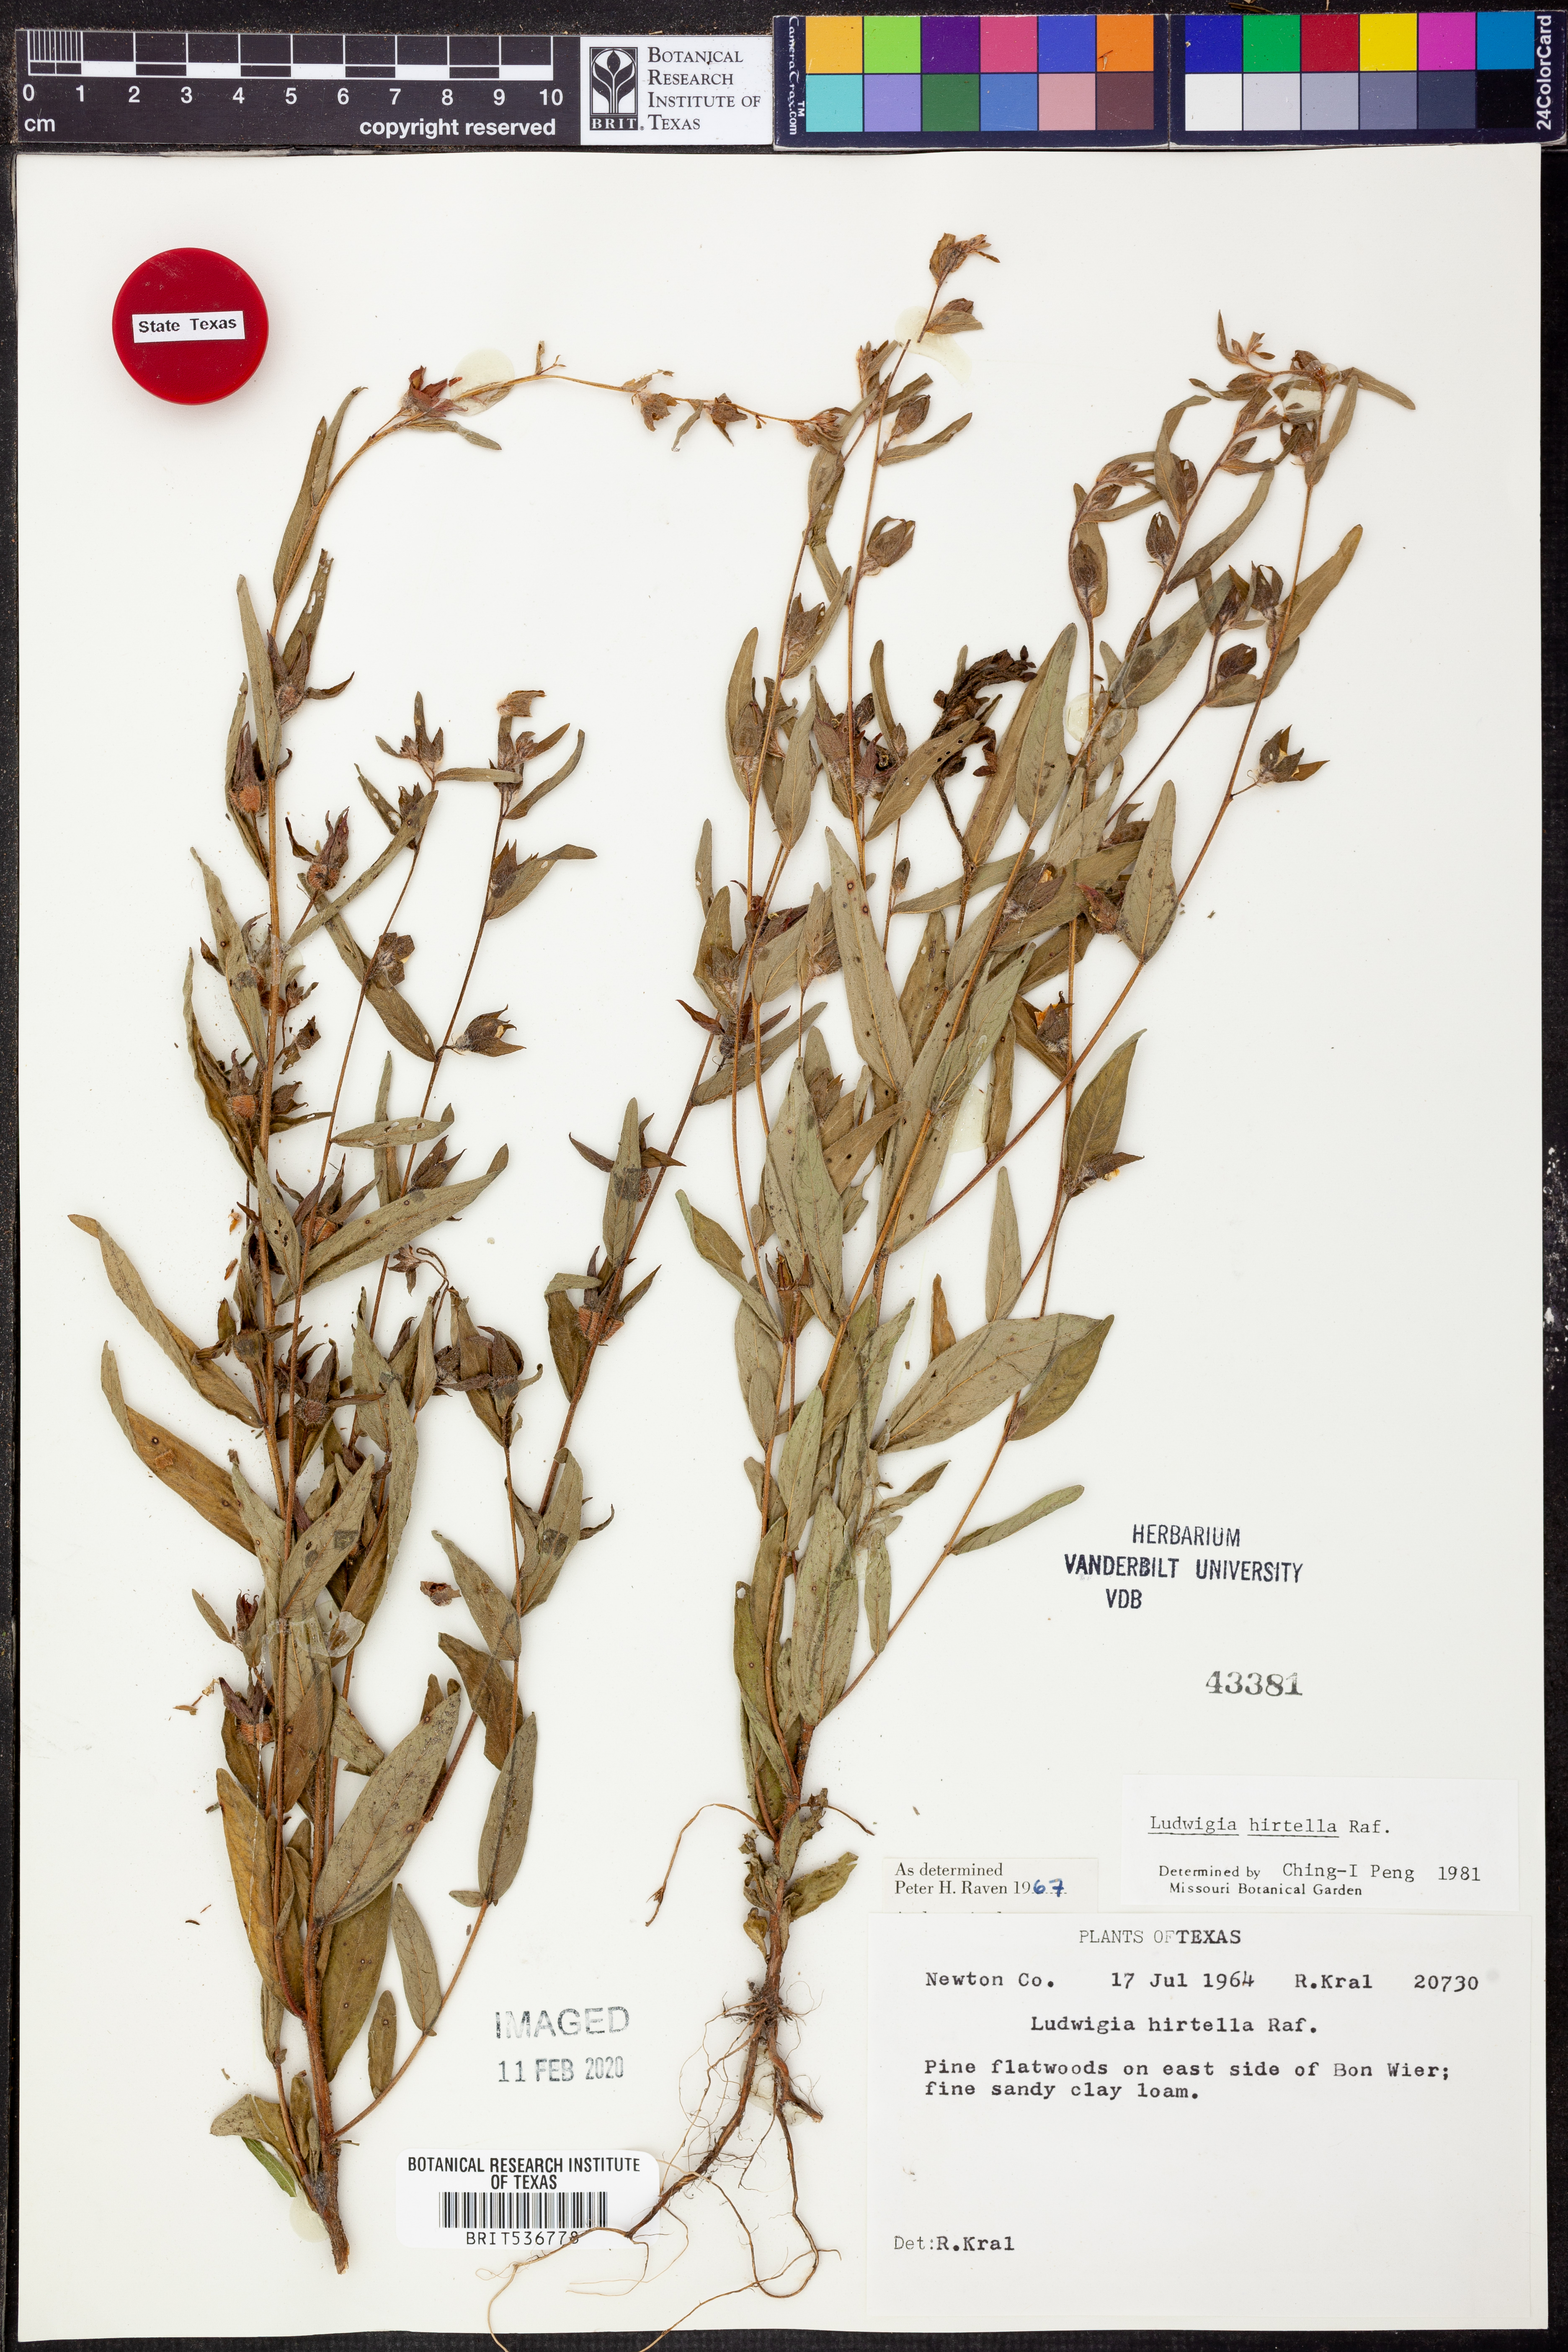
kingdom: Plantae
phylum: Tracheophyta
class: Magnoliopsida
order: Myrtales
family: Onagraceae
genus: Ludwigia
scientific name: Ludwigia hirtella
